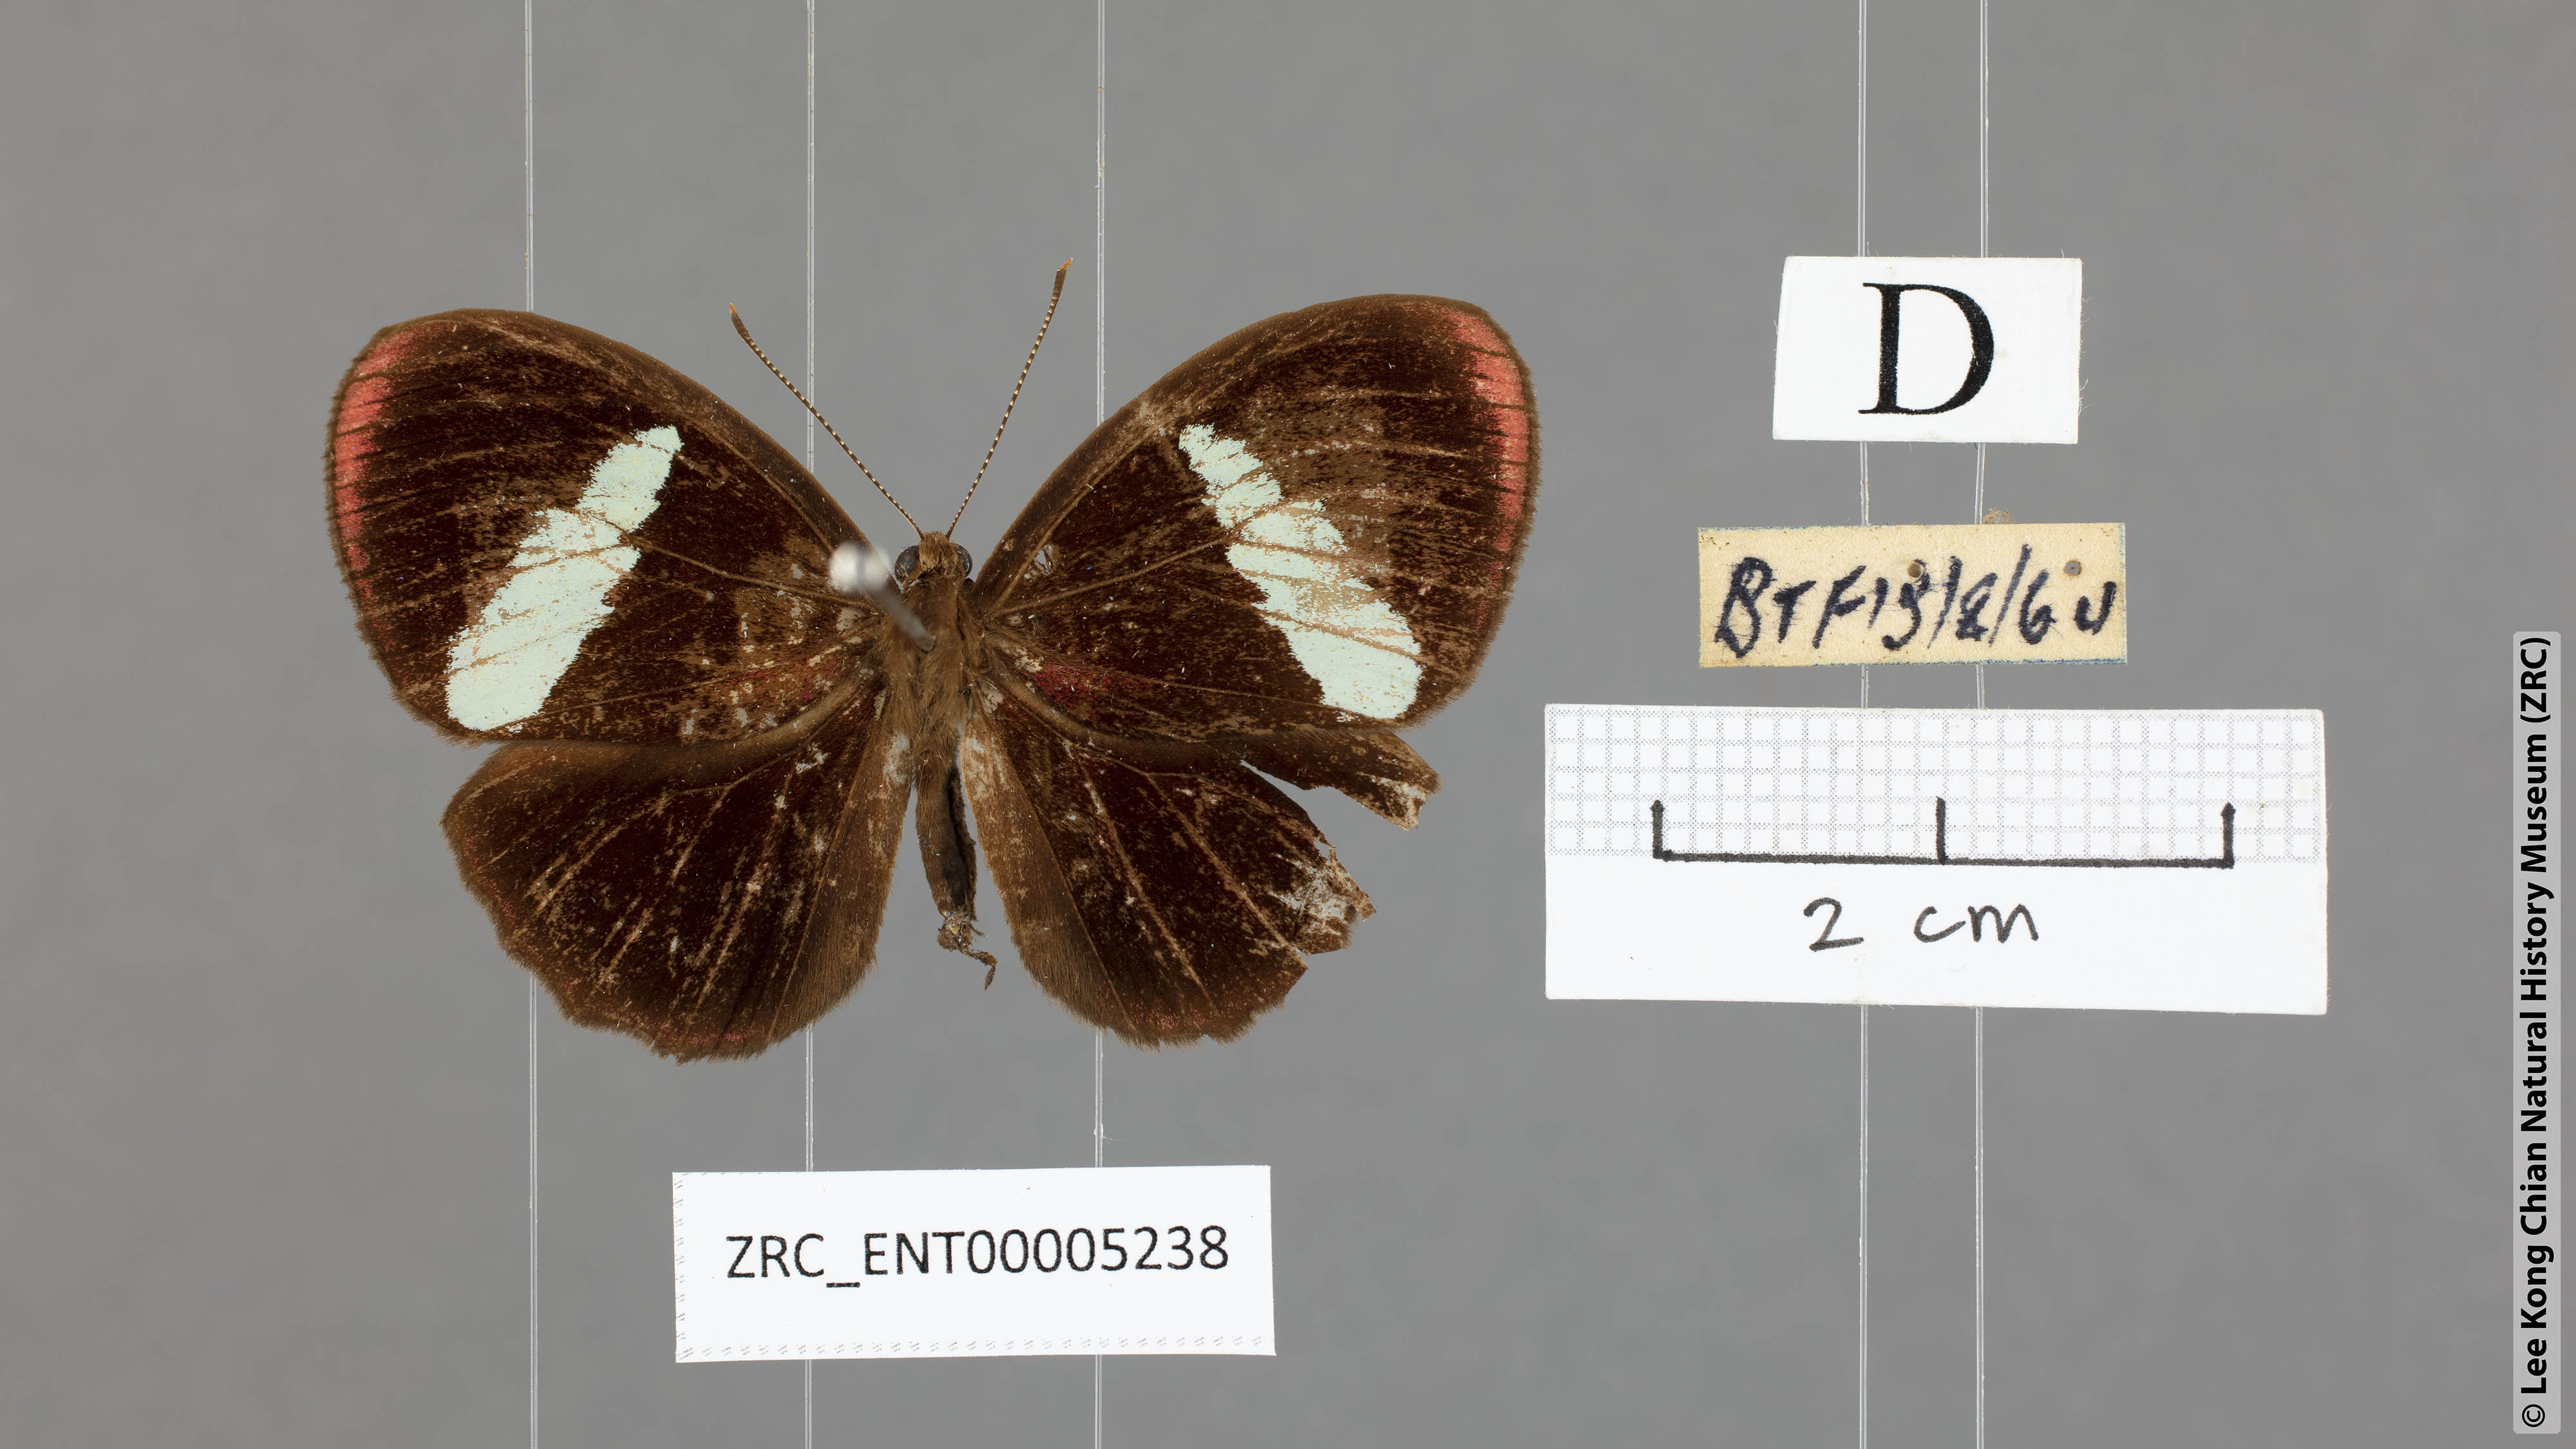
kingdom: Animalia
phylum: Arthropoda
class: Insecta
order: Lepidoptera
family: Riodinidae
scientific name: Riodinidae
